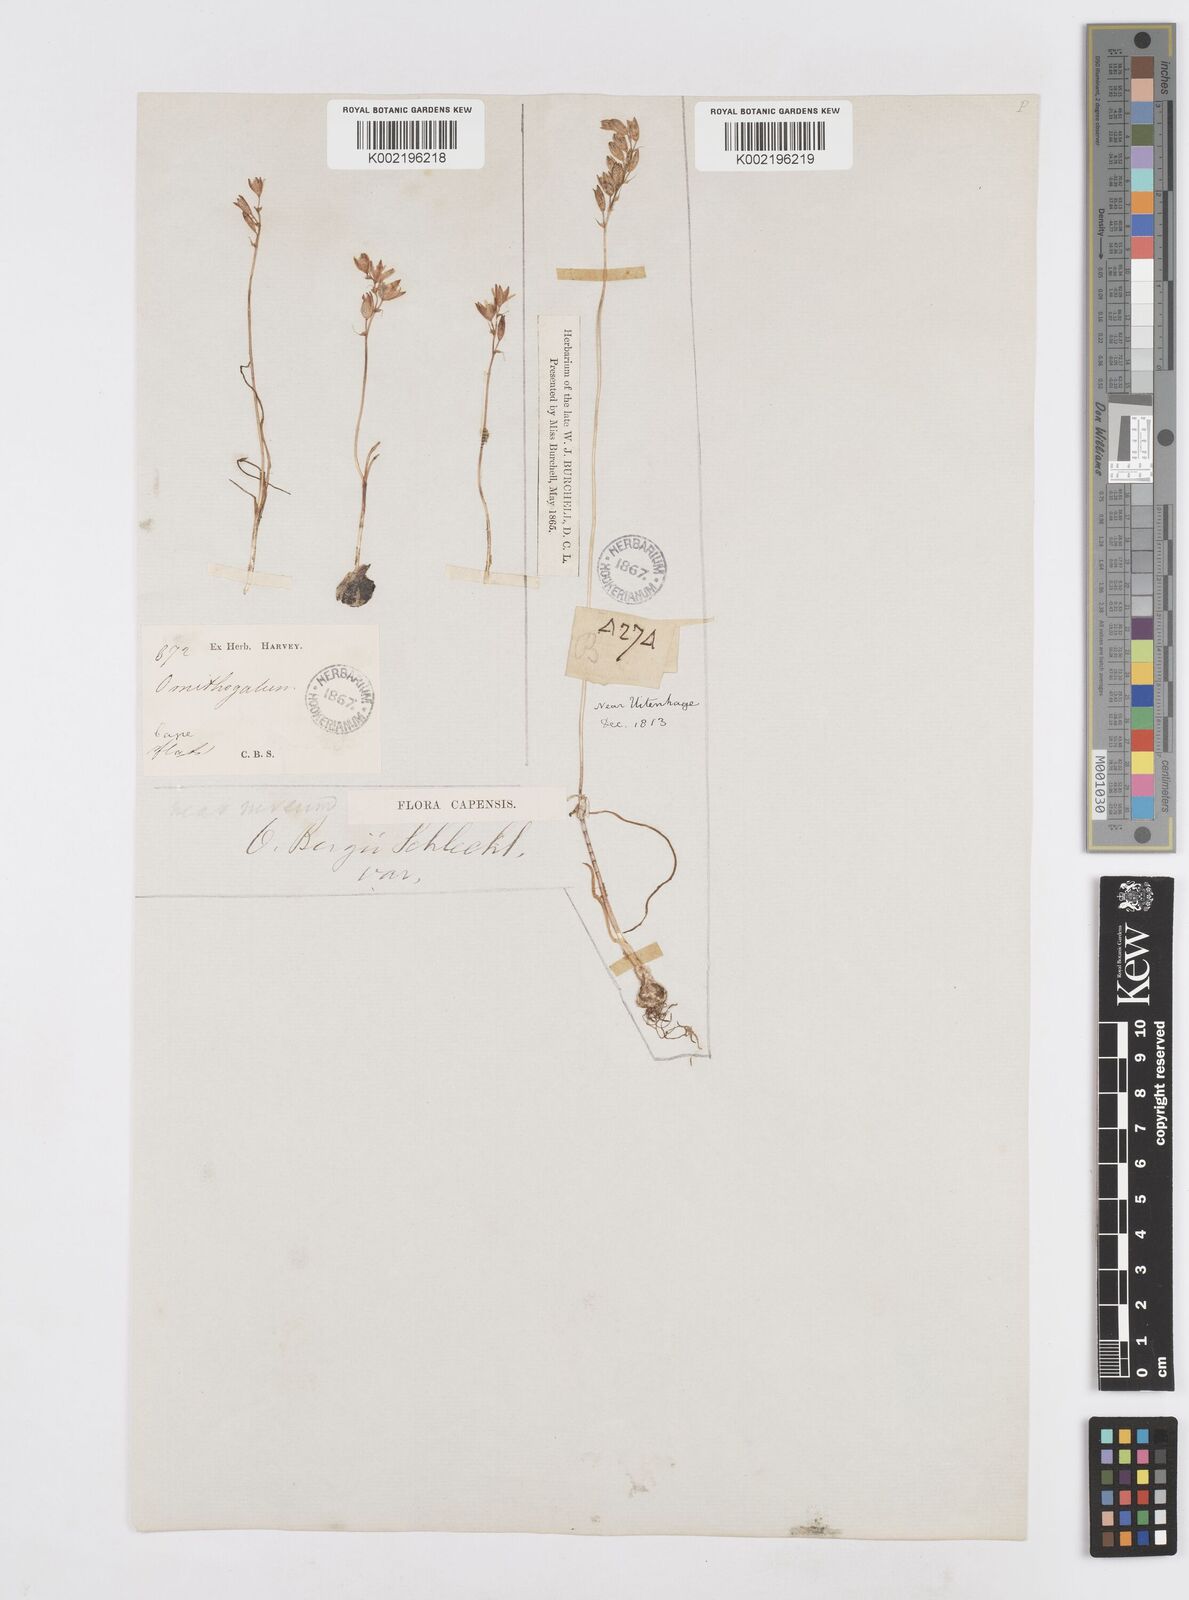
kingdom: Plantae
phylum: Tracheophyta
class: Liliopsida
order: Asparagales
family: Asparagaceae
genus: Ornithogalum
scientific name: Ornithogalum hispidum
